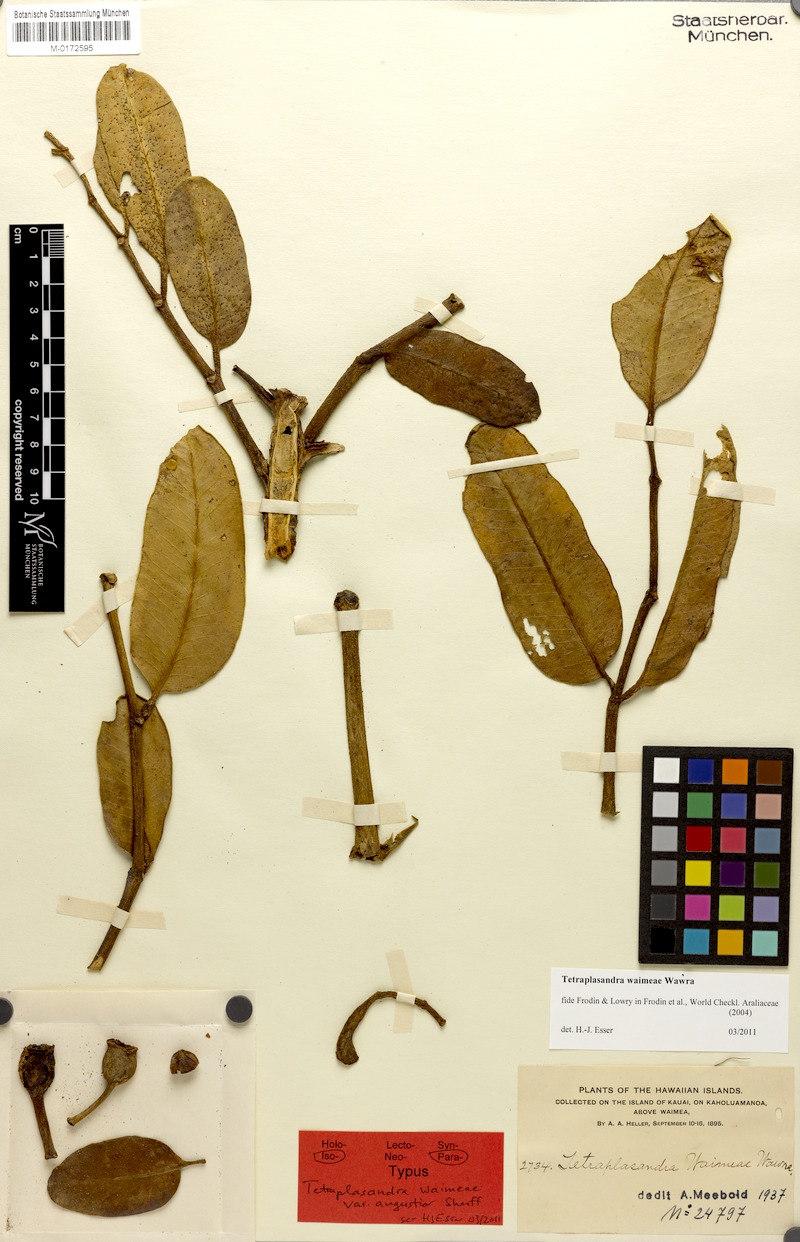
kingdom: Plantae
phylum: Tracheophyta
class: Magnoliopsida
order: Apiales
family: Araliaceae
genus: Polyscias
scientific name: Polyscias waimeae
